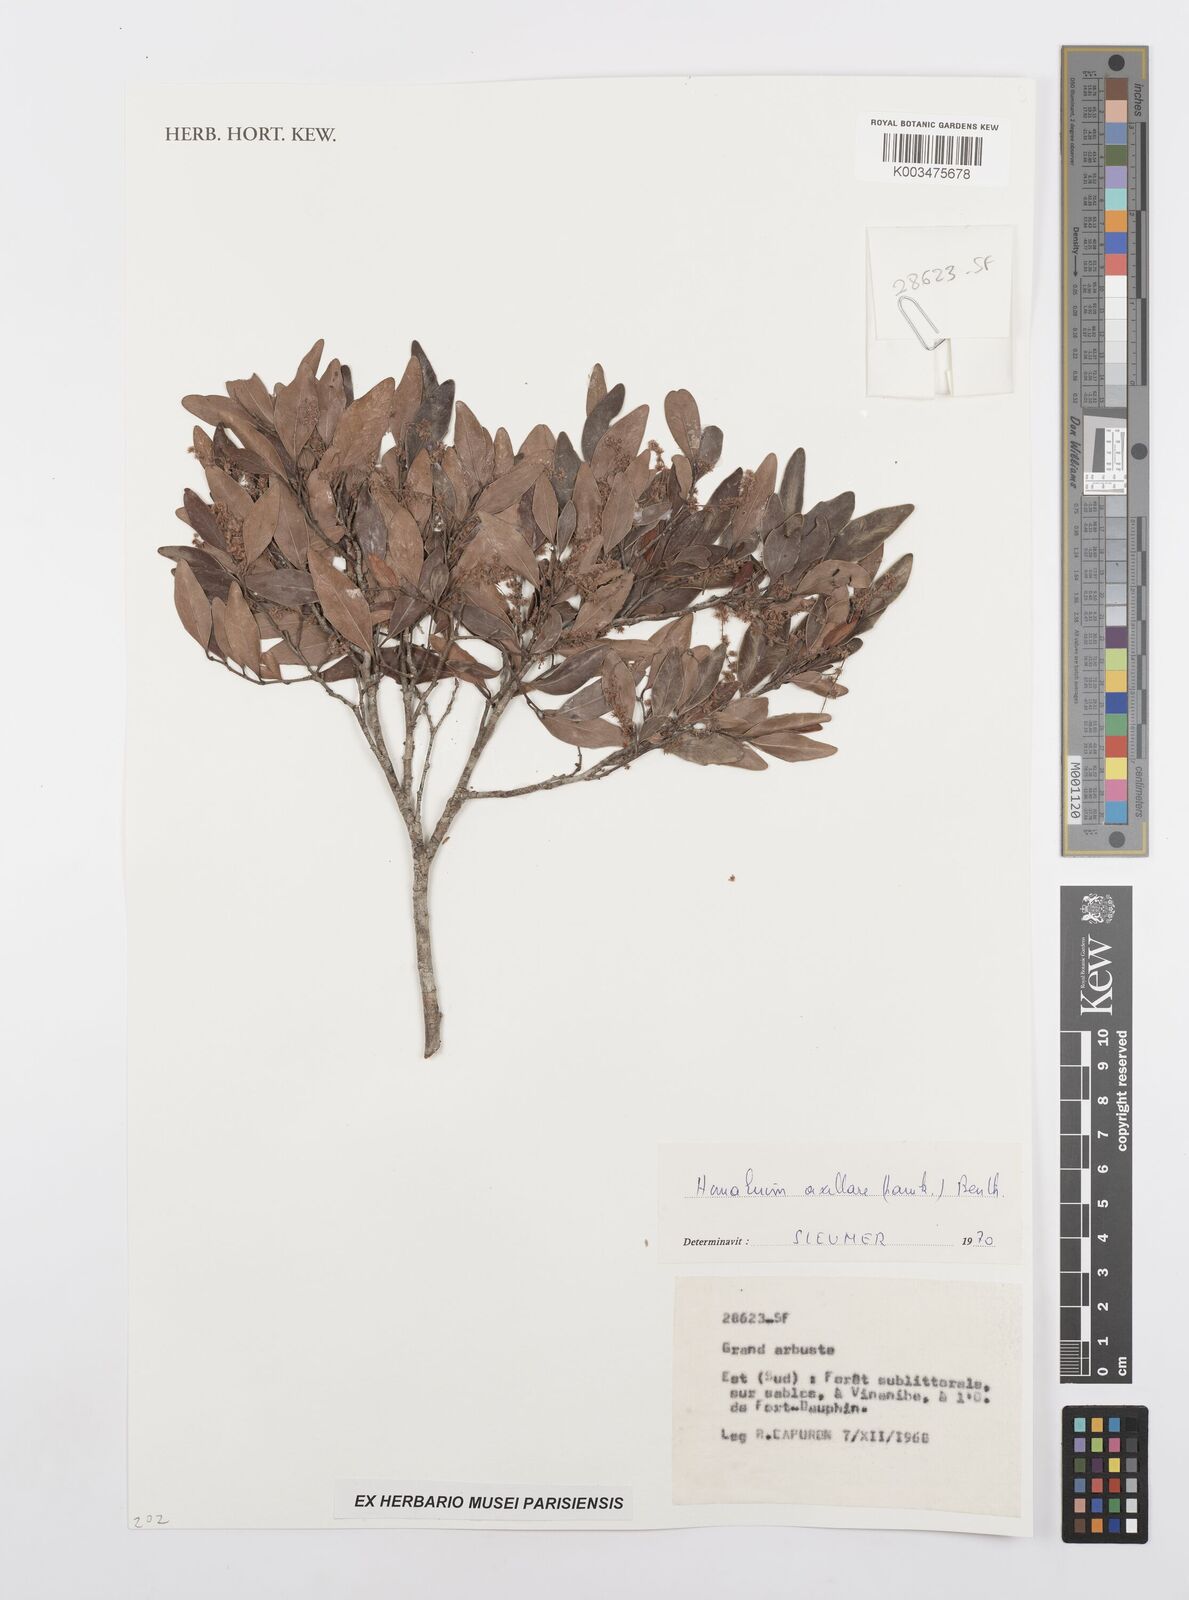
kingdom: Plantae
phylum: Tracheophyta
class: Magnoliopsida
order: Malpighiales
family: Salicaceae
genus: Homalium
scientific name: Homalium axillare
